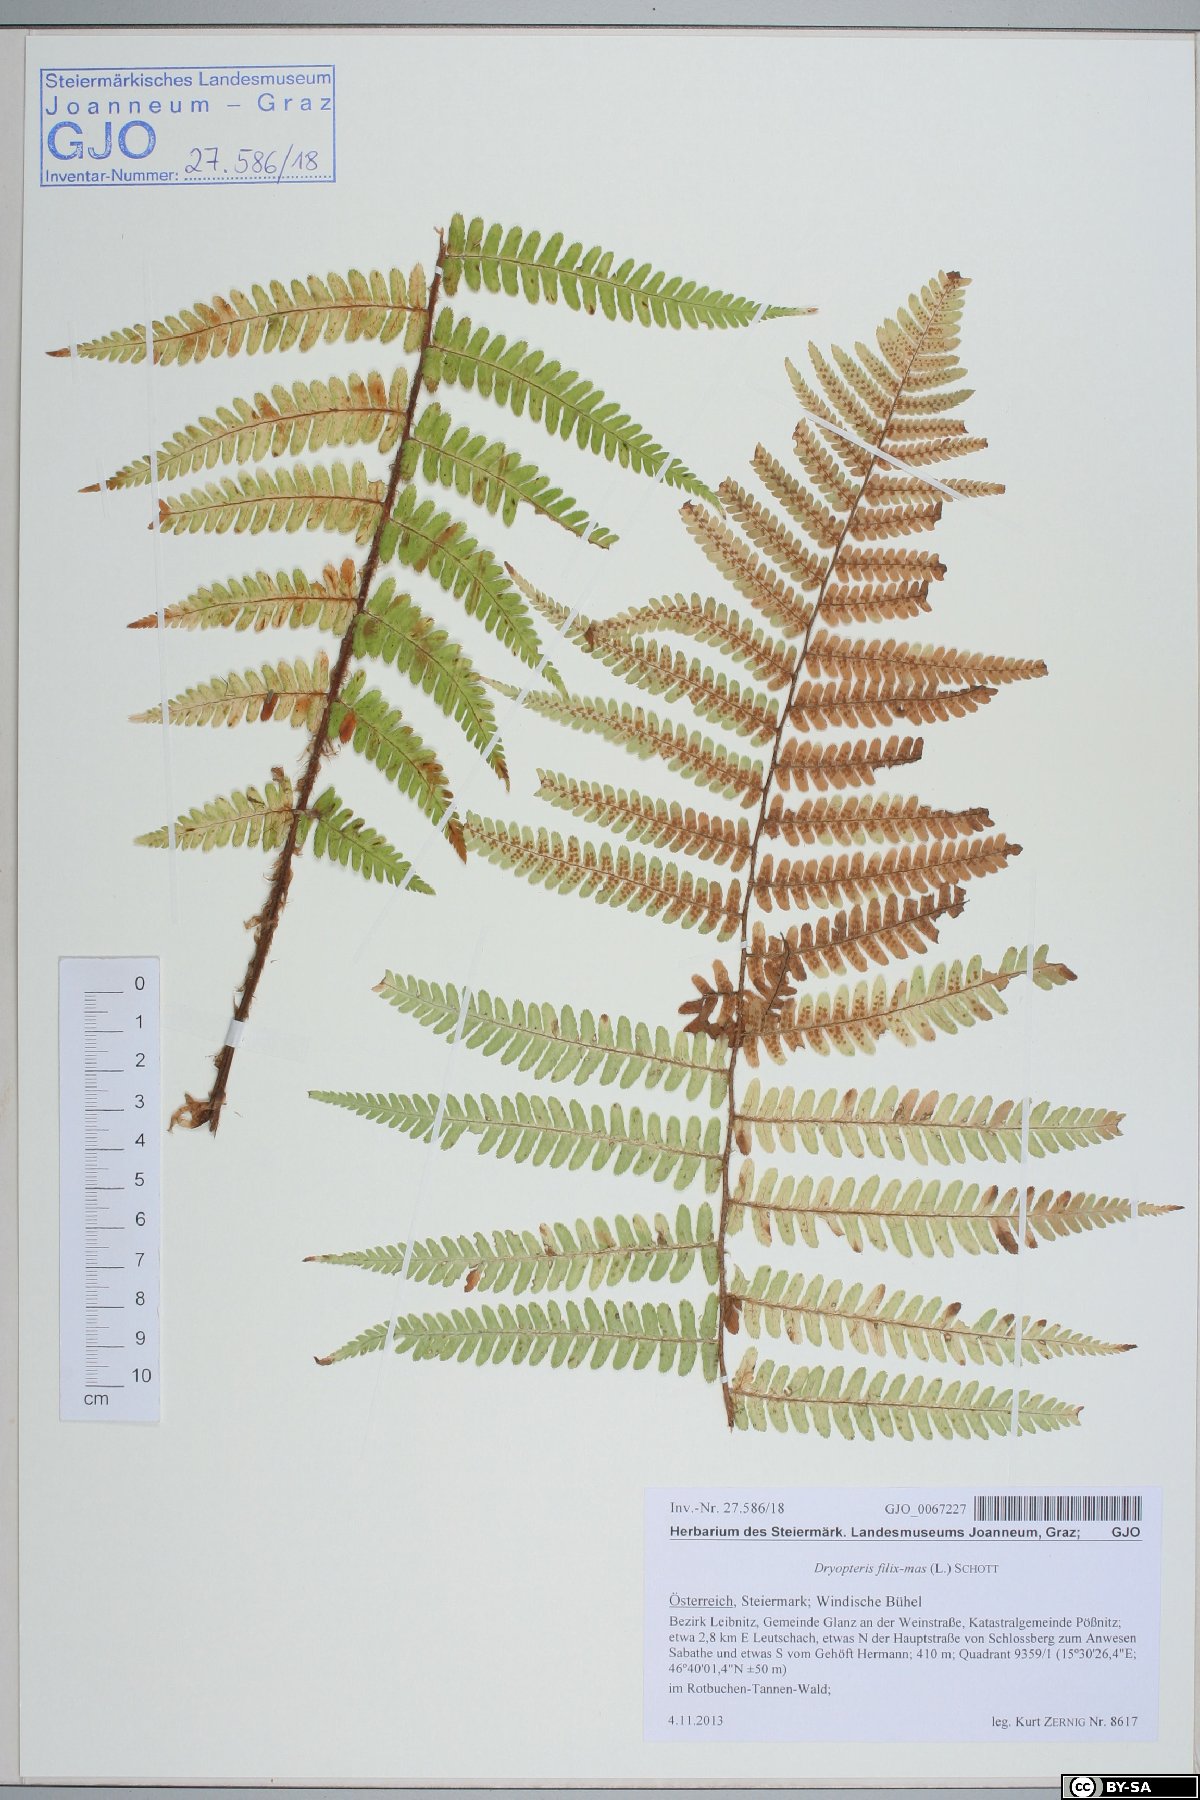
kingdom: Plantae
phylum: Tracheophyta
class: Polypodiopsida
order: Polypodiales
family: Dryopteridaceae
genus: Dryopteris
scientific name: Dryopteris filix-mas
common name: Male fern
